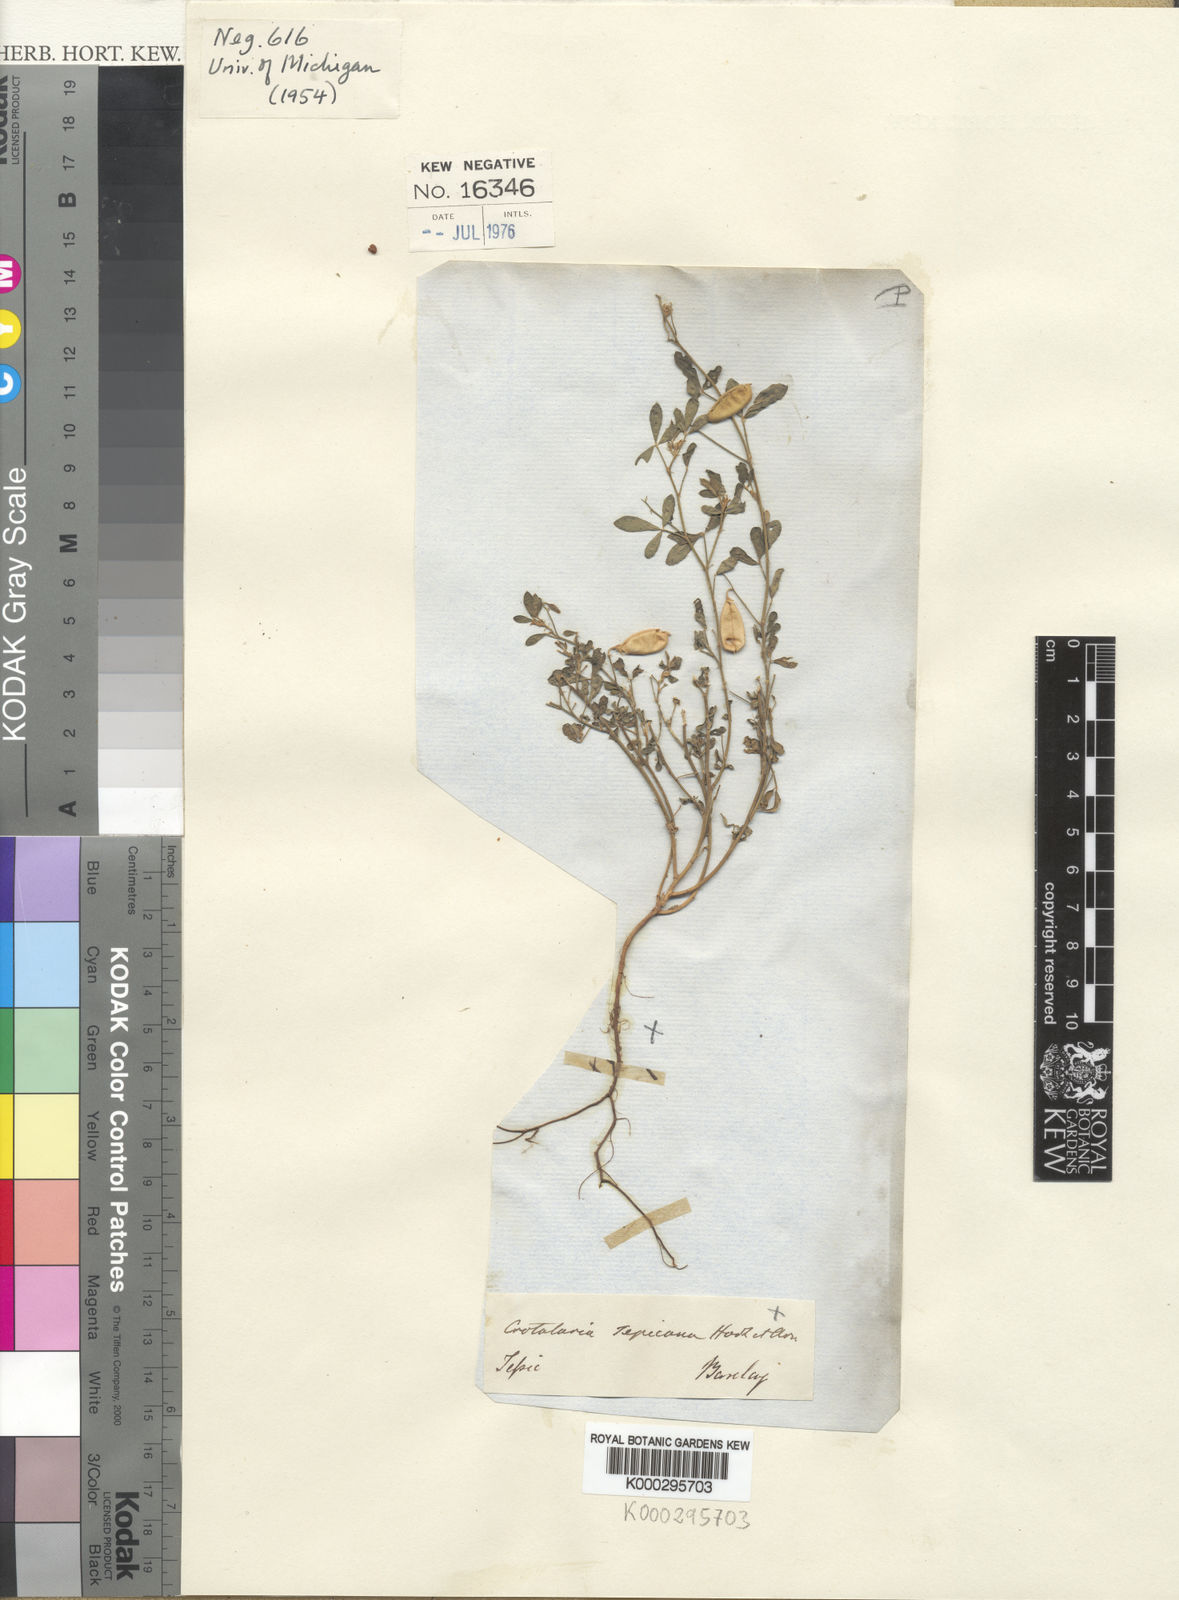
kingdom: Plantae
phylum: Tracheophyta
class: Magnoliopsida
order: Fabales
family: Fabaceae
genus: Crotalaria
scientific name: Crotalaria pumila
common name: Low rattlebox
